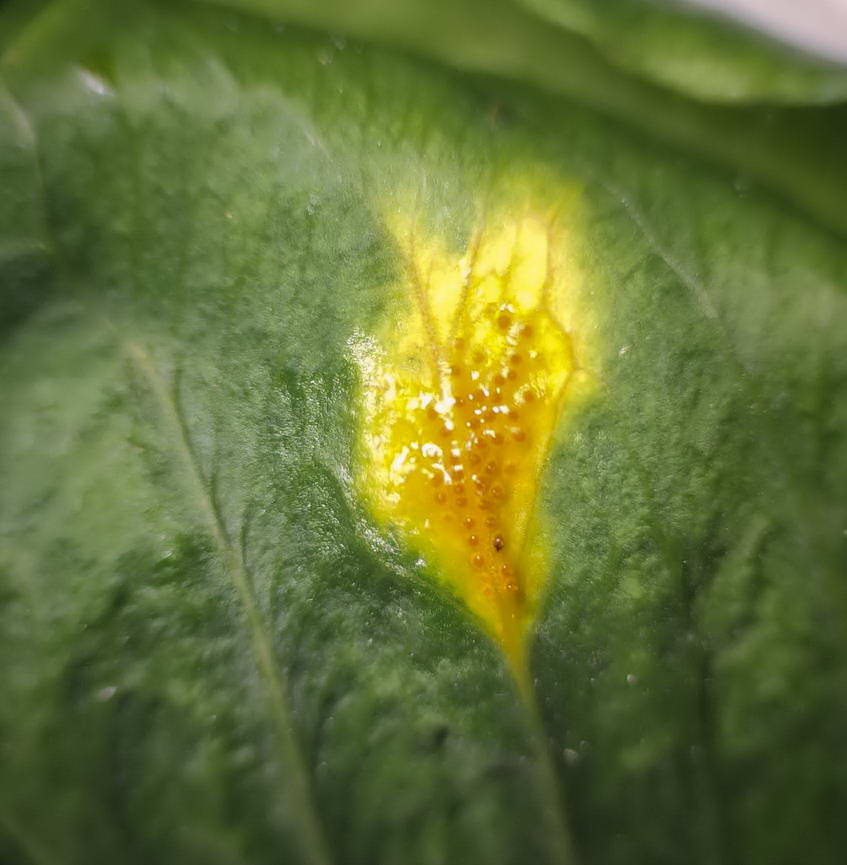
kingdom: Fungi
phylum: Basidiomycota
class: Pucciniomycetes
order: Pucciniales
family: Gymnosporangiaceae
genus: Gymnosporangium
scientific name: Gymnosporangium sabinae
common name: pæregitter-bævrerust
